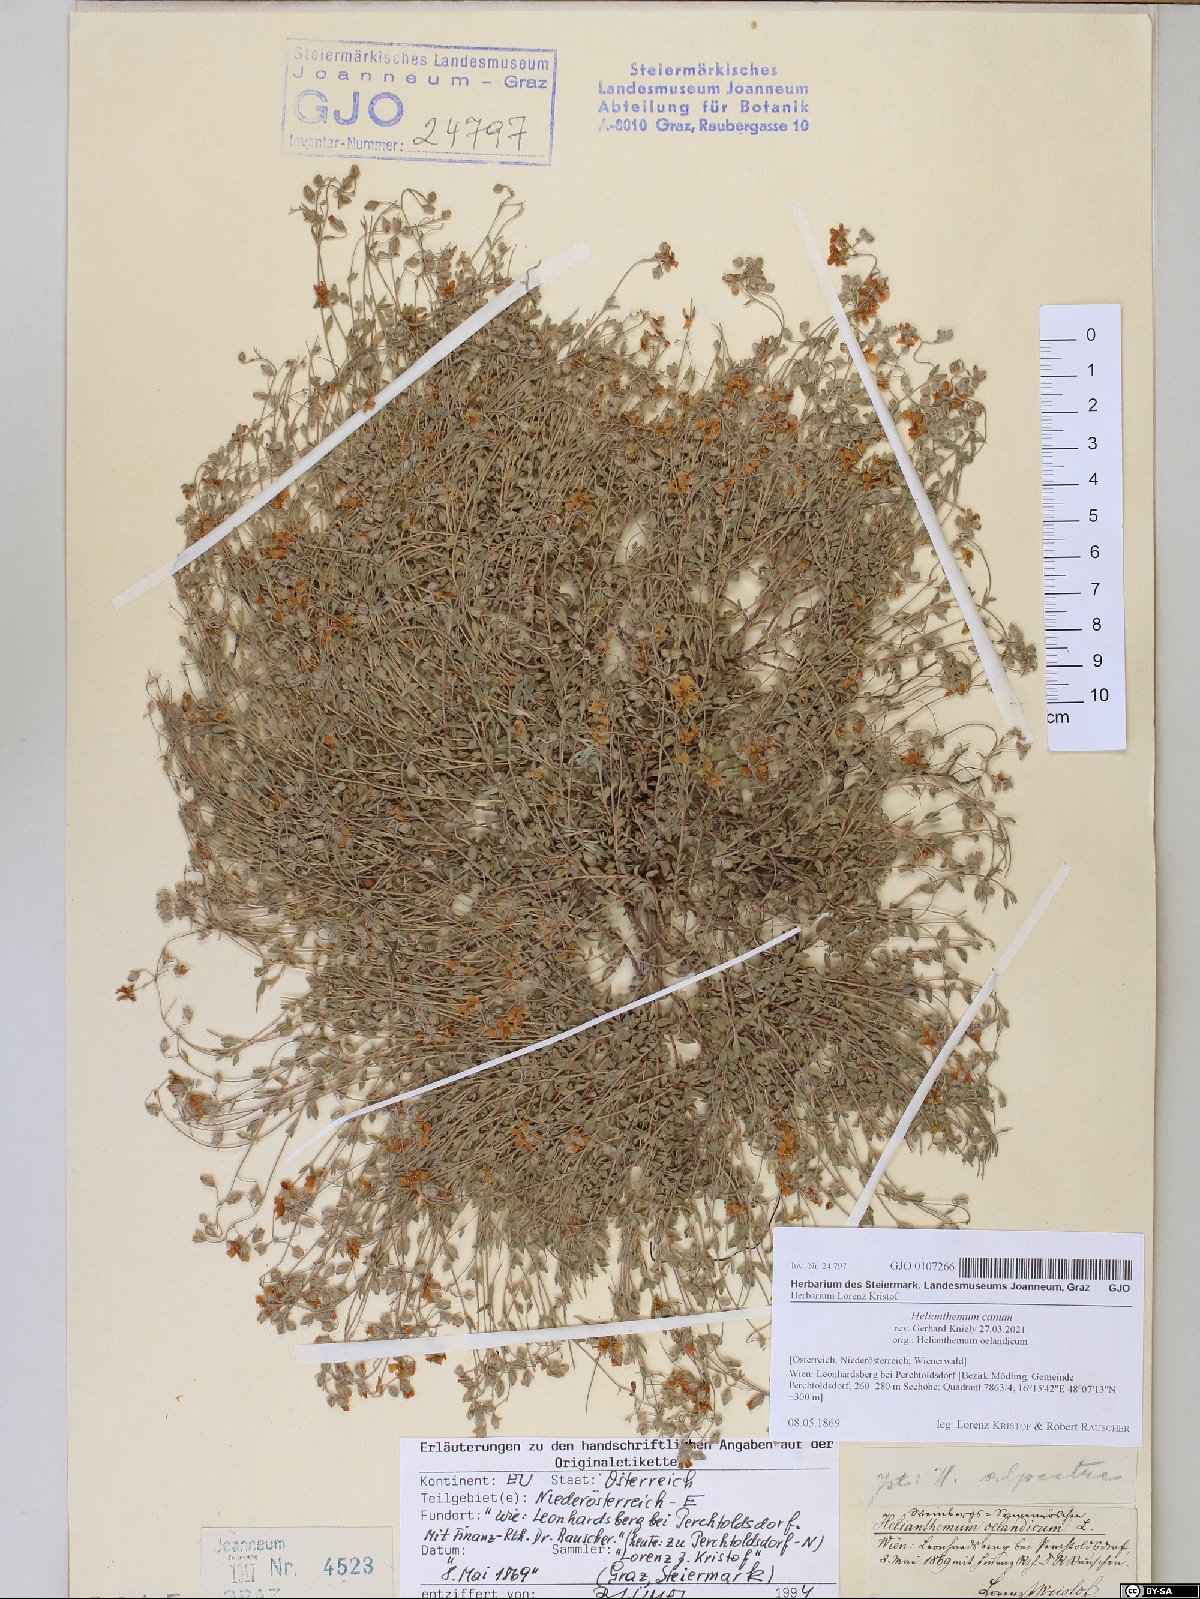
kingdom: Plantae
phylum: Tracheophyta
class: Magnoliopsida
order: Malvales
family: Cistaceae
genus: Helianthemum
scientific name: Helianthemum canum
